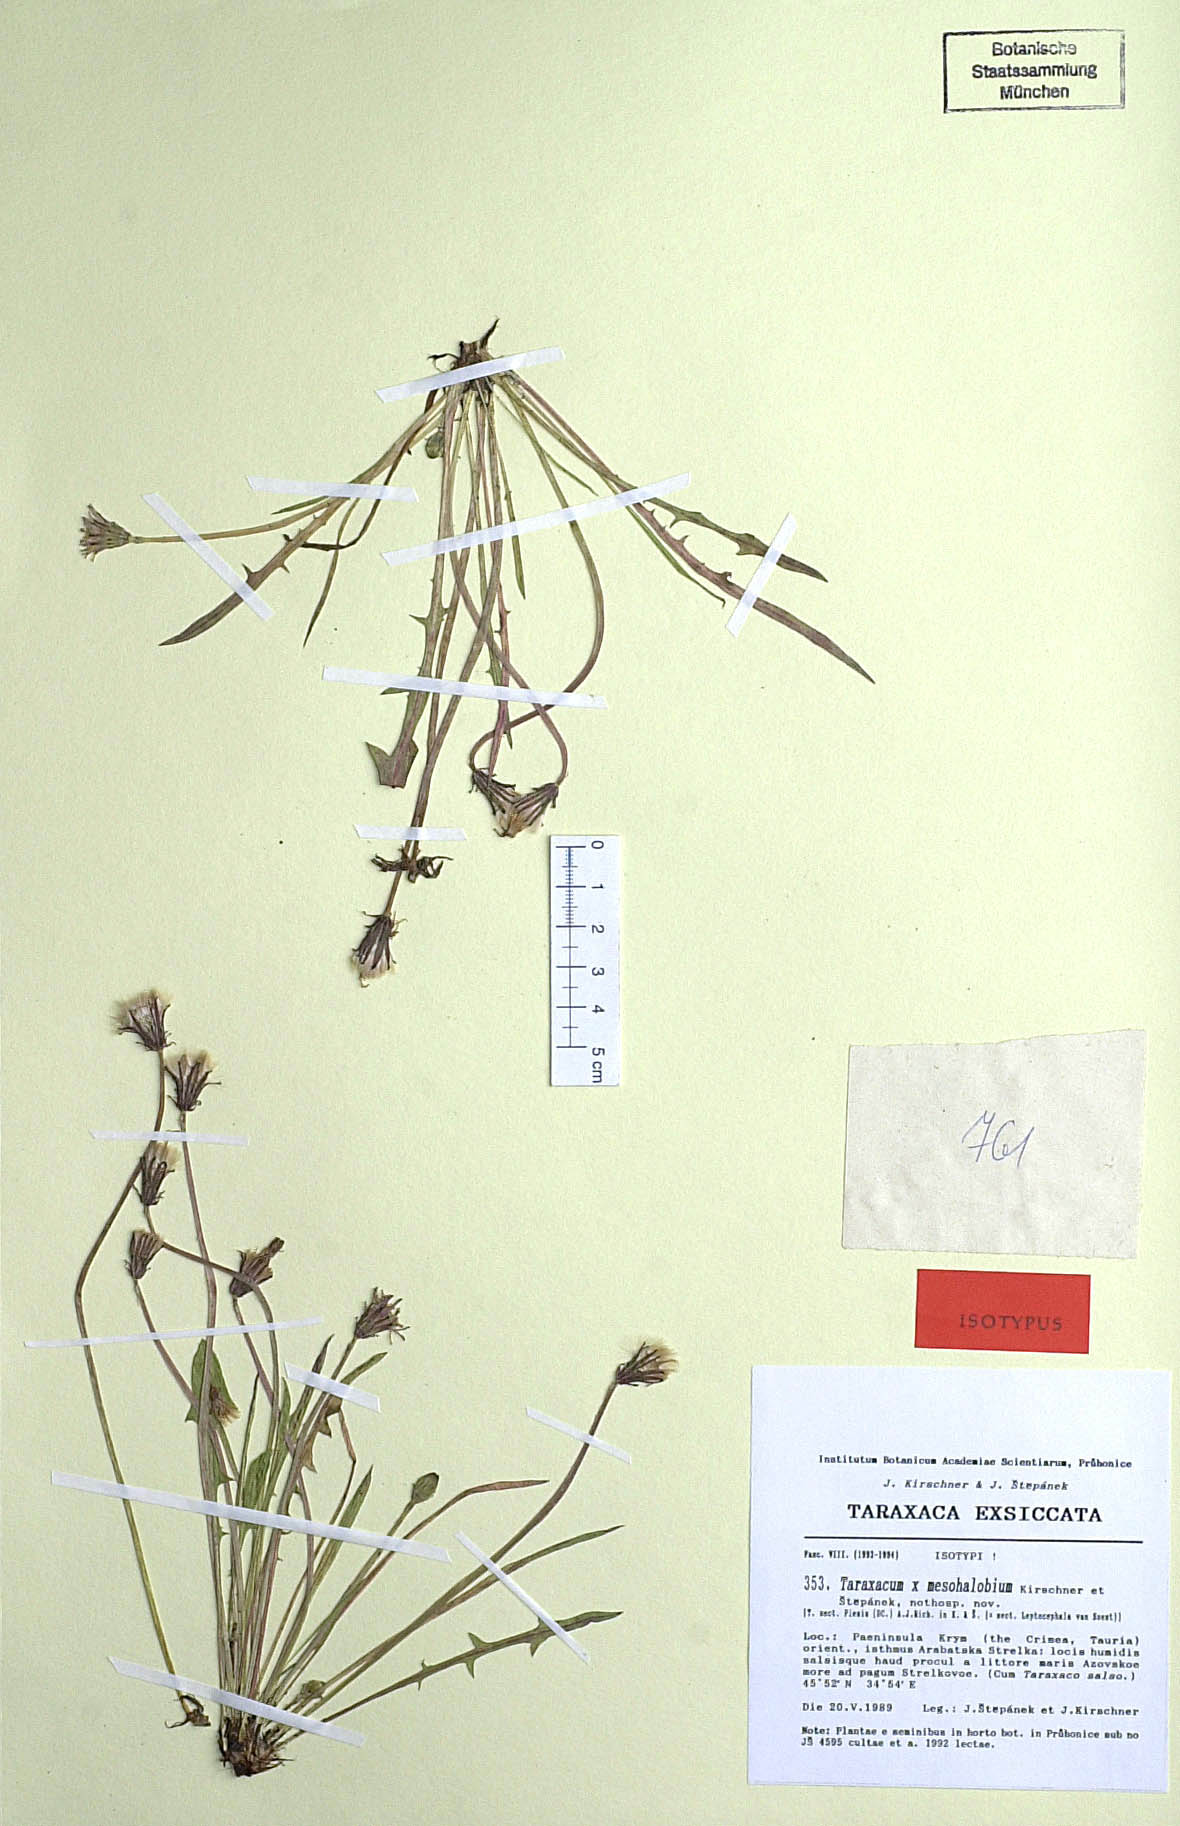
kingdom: Plantae
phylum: Tracheophyta
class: Magnoliopsida
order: Asterales
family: Asteraceae
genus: Taraxacum
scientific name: Taraxacum mesohalobium
